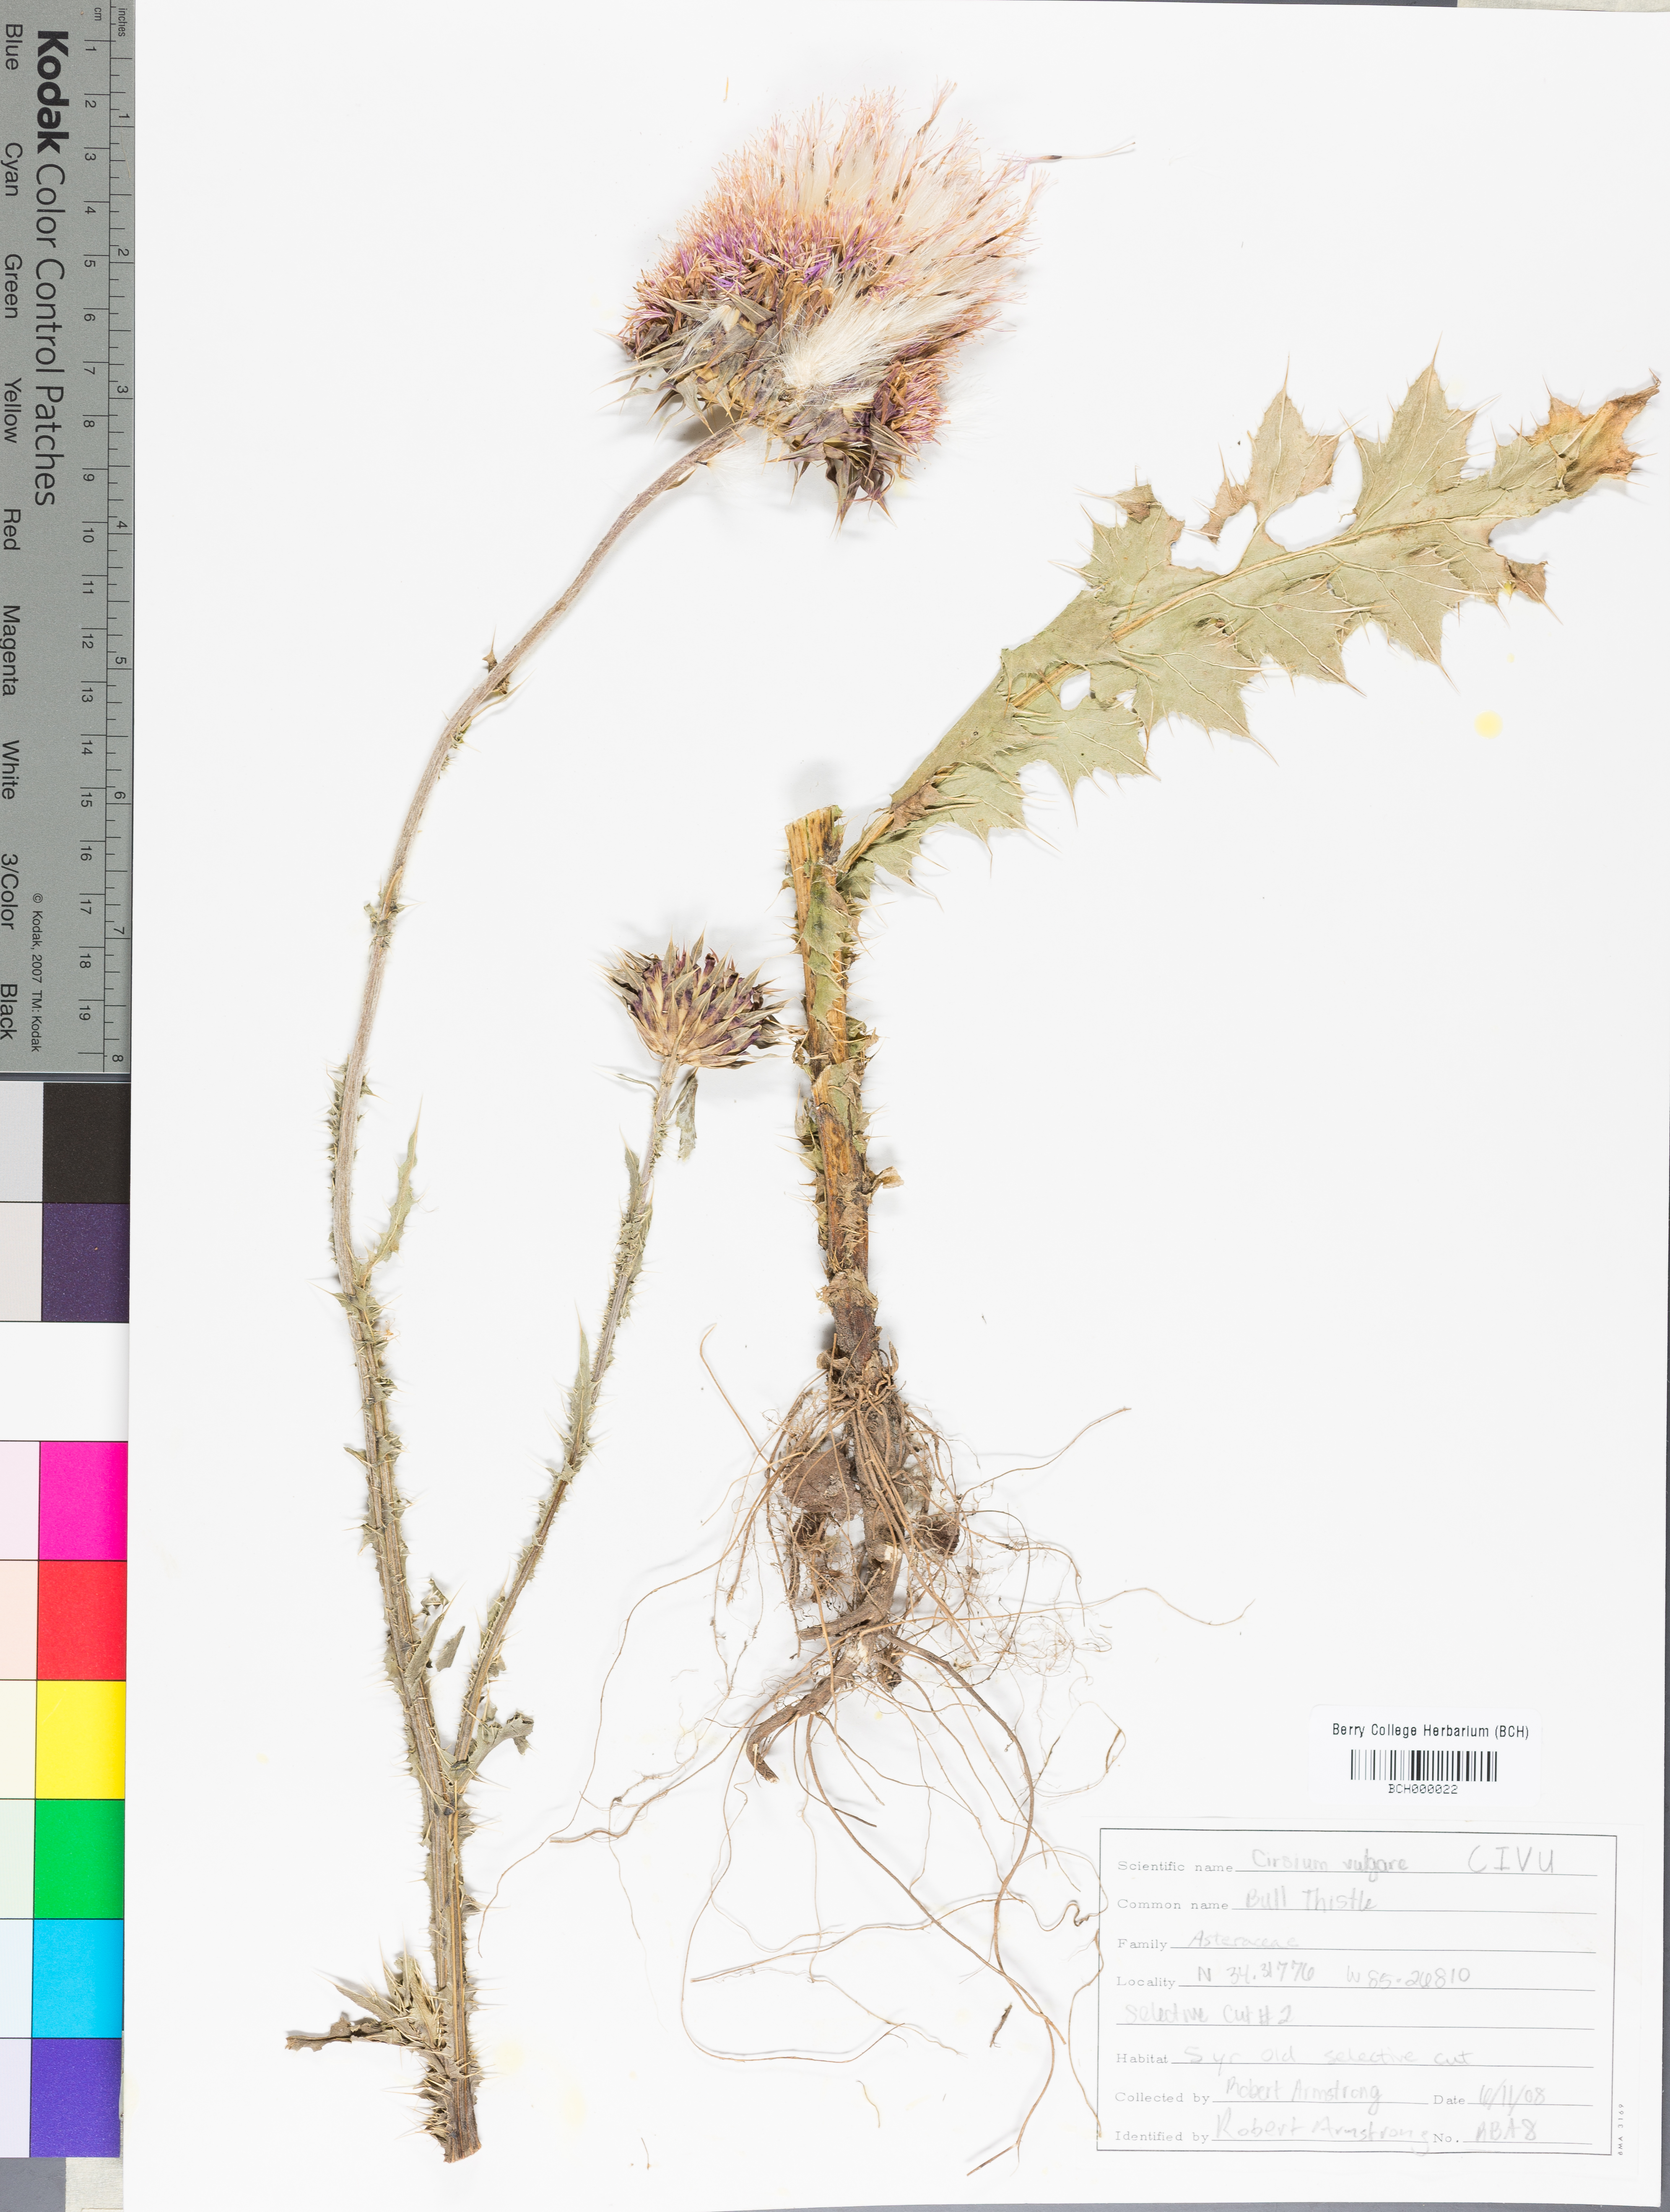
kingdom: Plantae
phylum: Tracheophyta
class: Magnoliopsida
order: Asterales
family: Asteraceae
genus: Cirsium
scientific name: Cirsium vulgare
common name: Bull thistle
